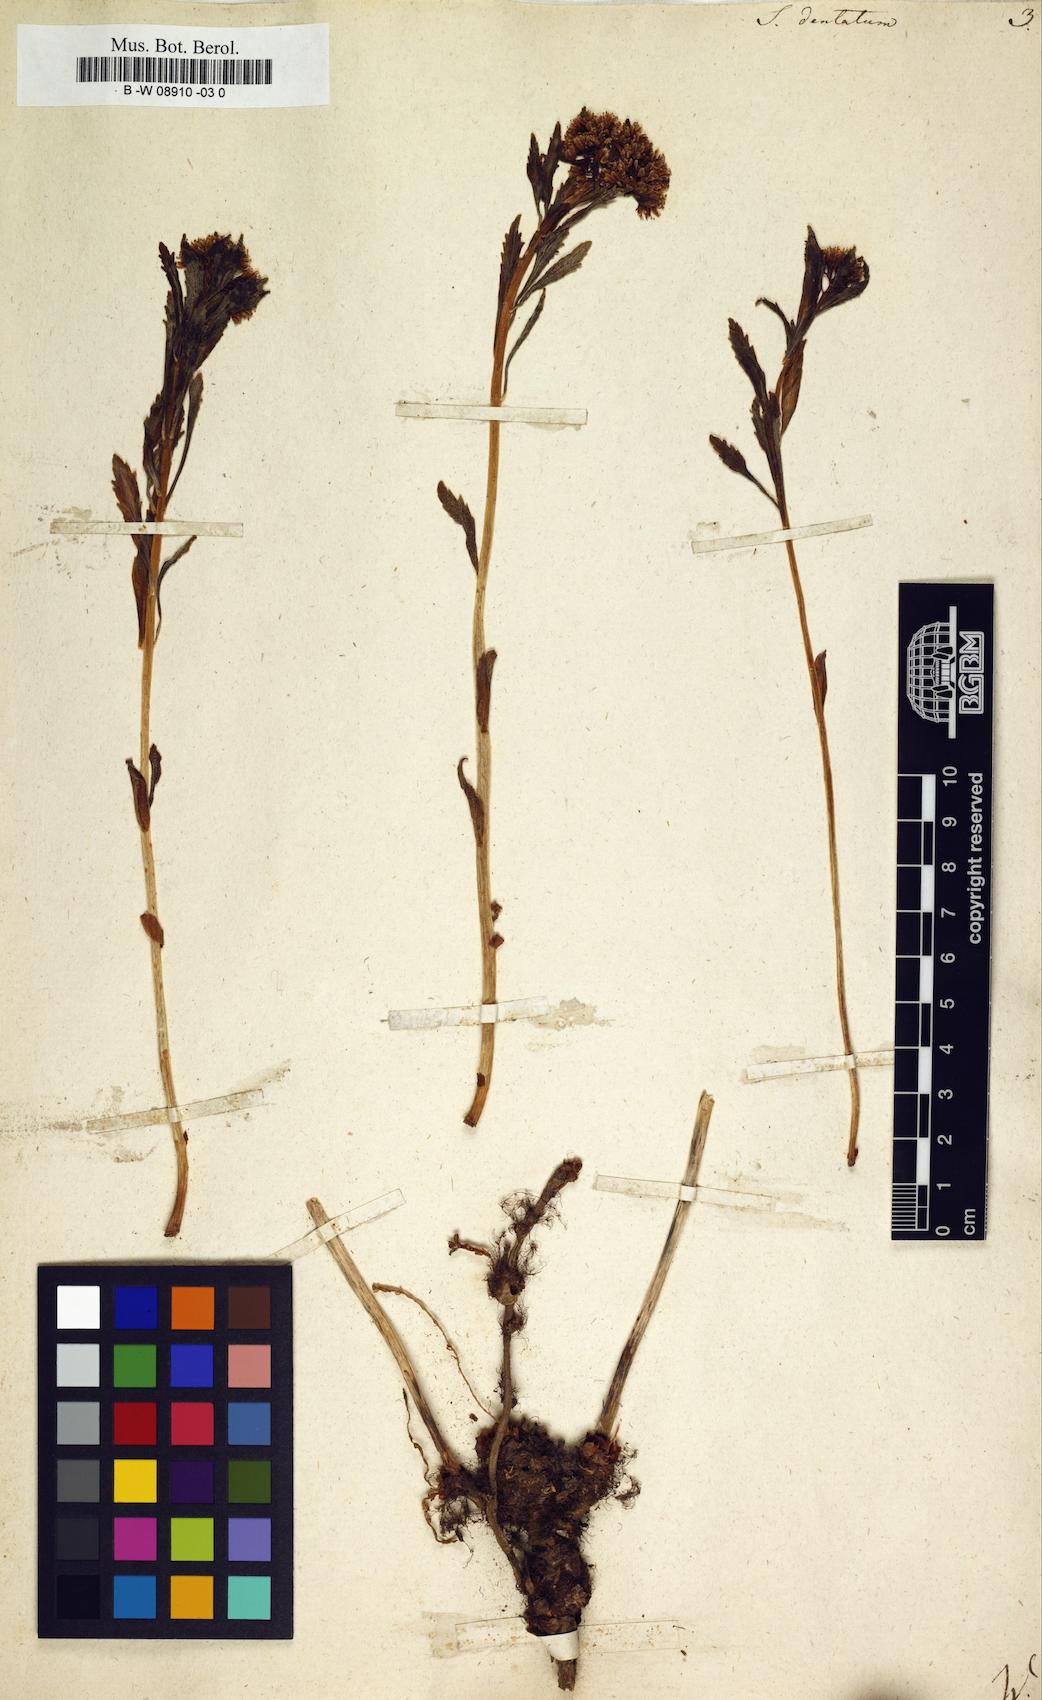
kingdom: Plantae
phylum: Tracheophyta
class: Magnoliopsida
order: Saxifragales
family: Crassulaceae
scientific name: Crassulaceae
